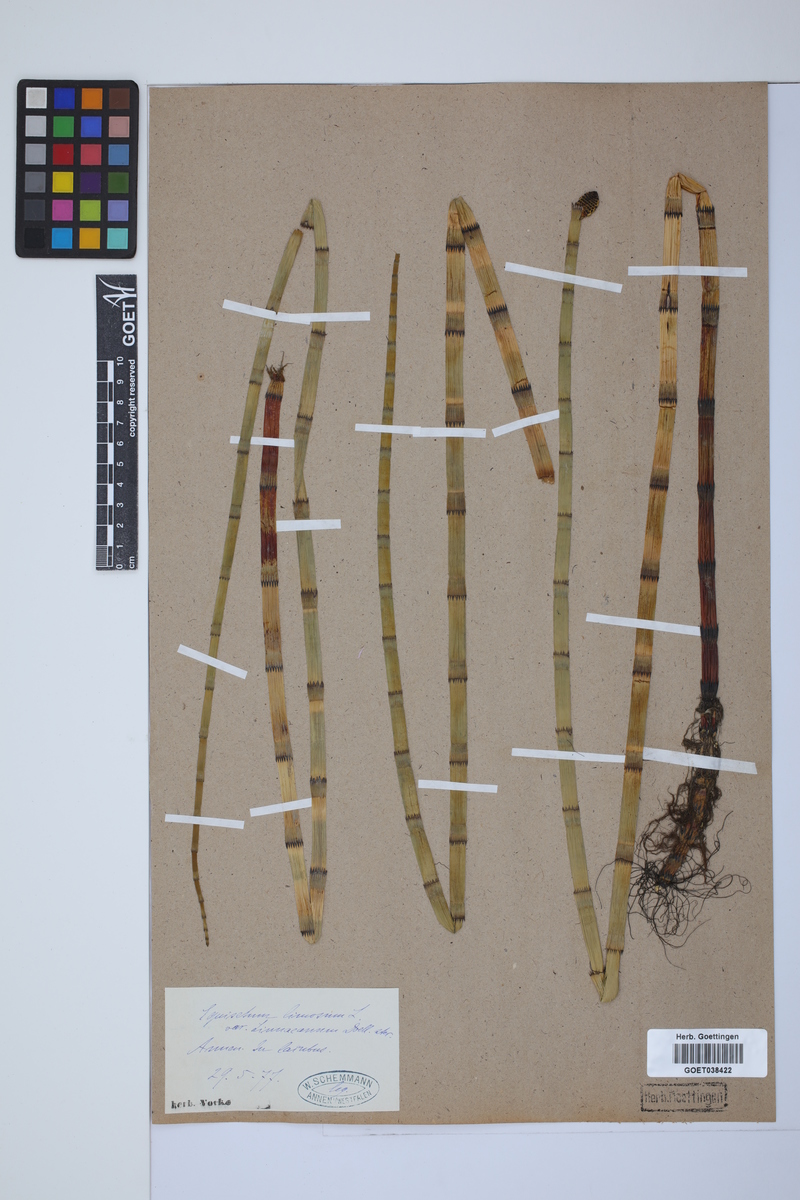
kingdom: Plantae
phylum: Tracheophyta
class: Polypodiopsida
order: Equisetales
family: Equisetaceae
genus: Equisetum
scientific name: Equisetum fluviatile
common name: Water horsetail
